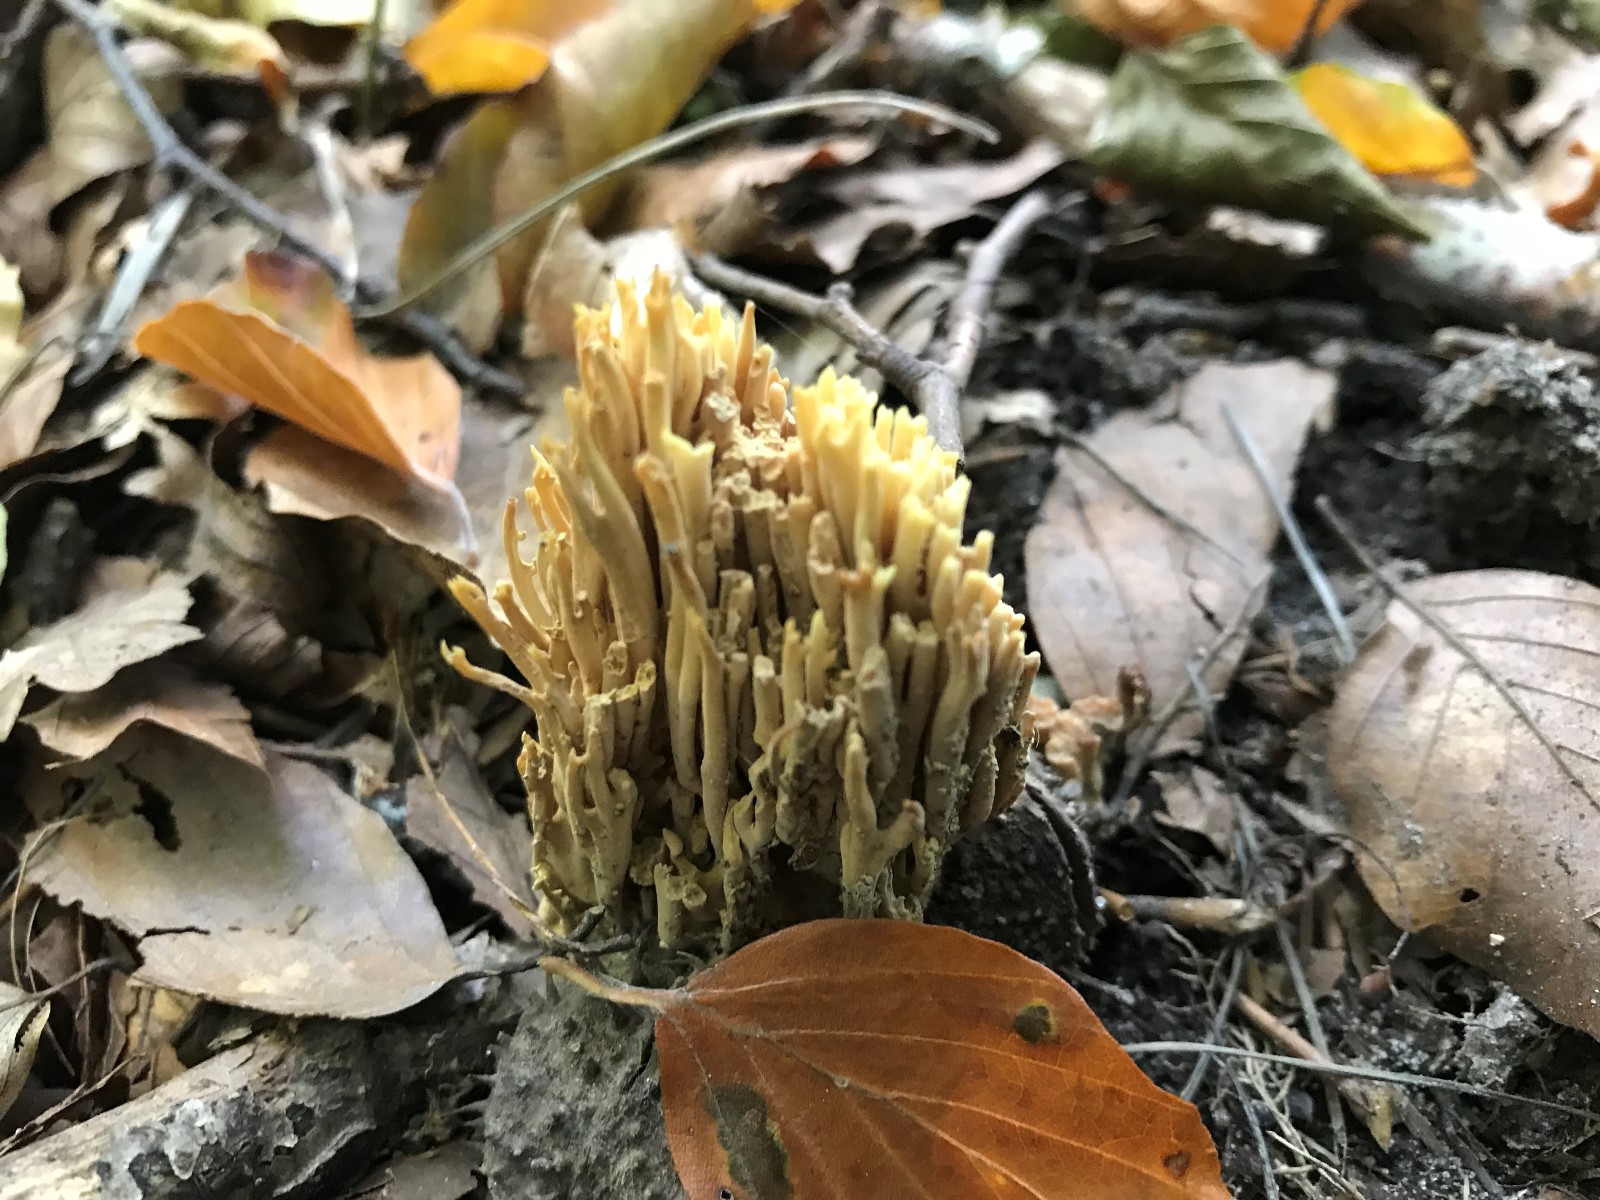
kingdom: Fungi
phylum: Basidiomycota
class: Agaricomycetes
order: Gomphales
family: Gomphaceae
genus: Ramaria
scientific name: Ramaria stricta
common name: rank koralsvamp
